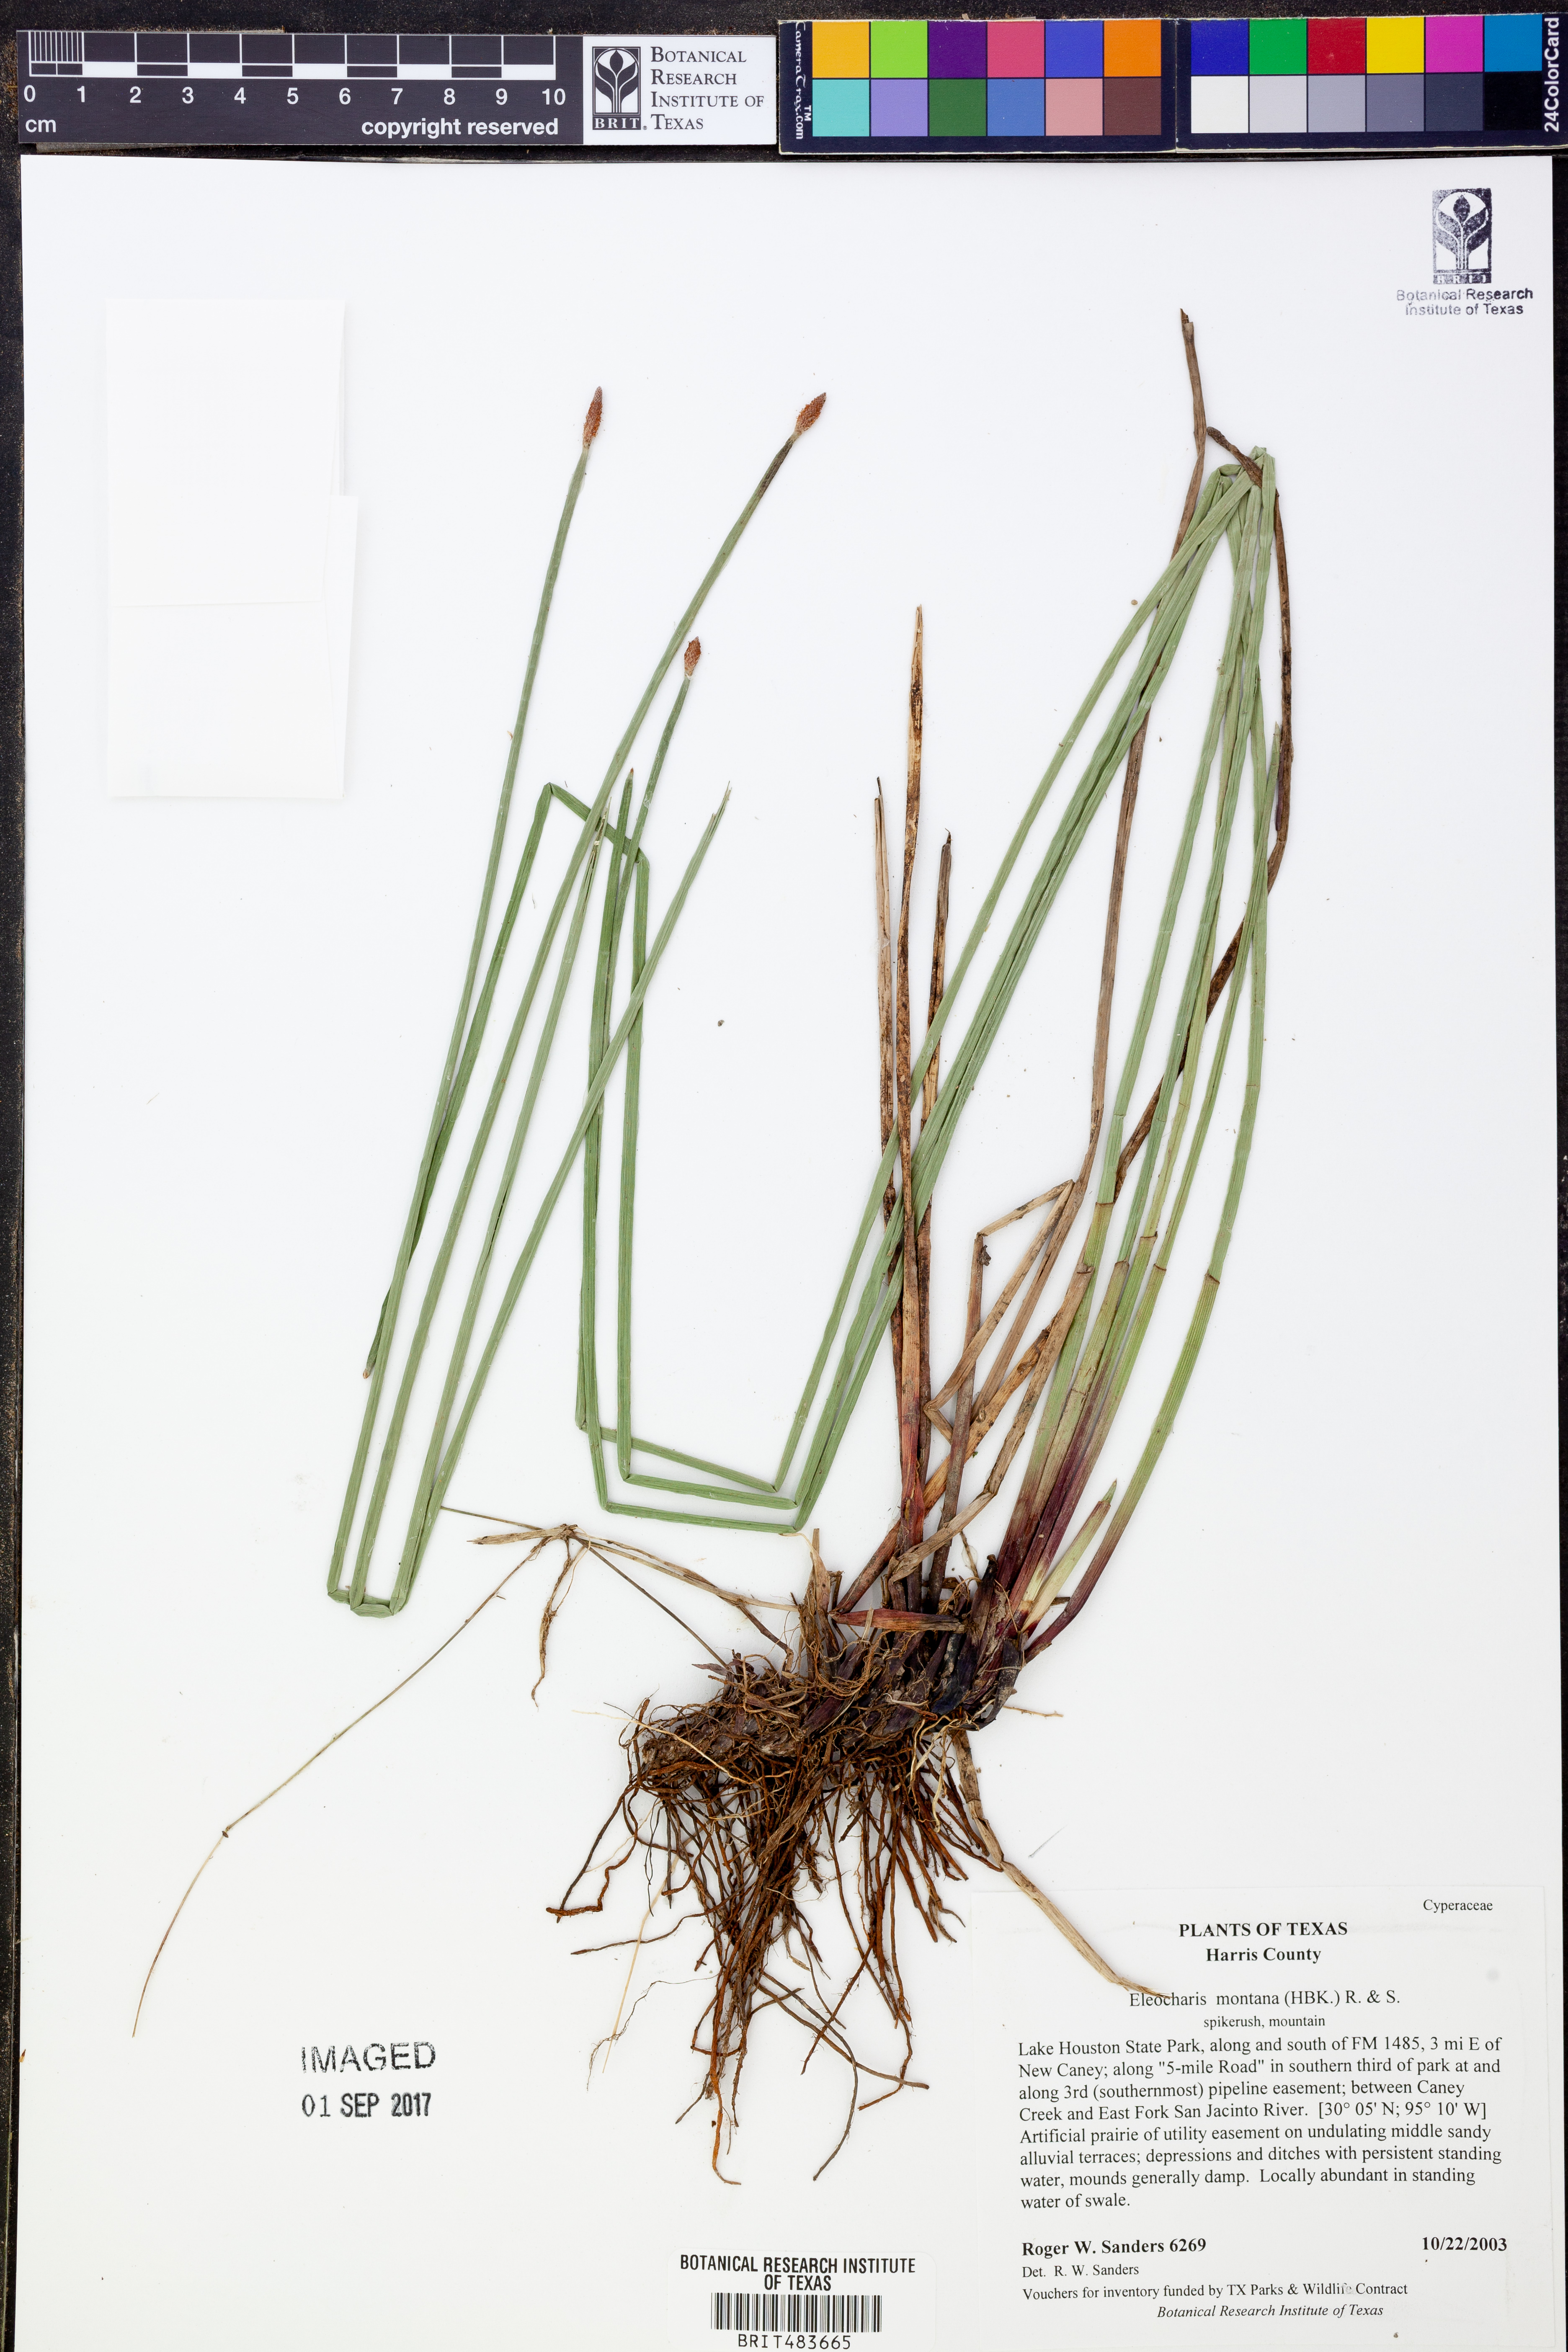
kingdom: Plantae
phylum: Tracheophyta
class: Liliopsida
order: Poales
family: Cyperaceae
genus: Eleocharis
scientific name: Eleocharis montana
